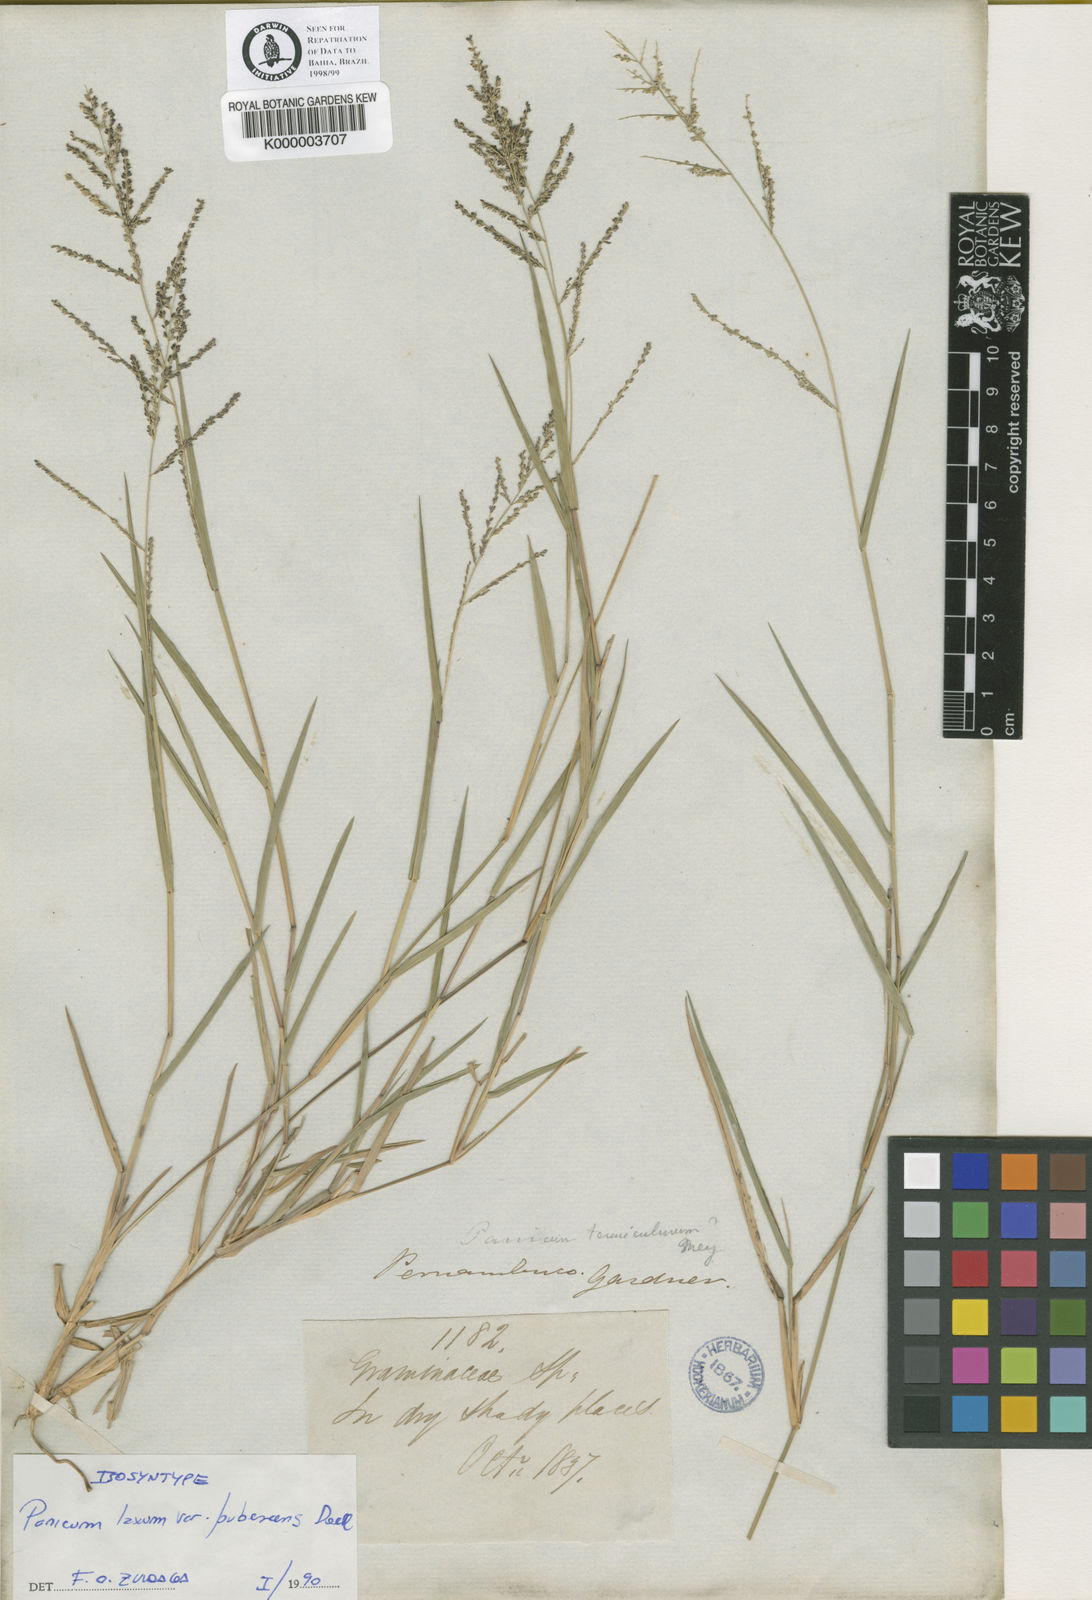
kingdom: Plantae
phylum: Tracheophyta
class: Liliopsida
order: Poales
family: Poaceae
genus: Panicum
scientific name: Panicum
